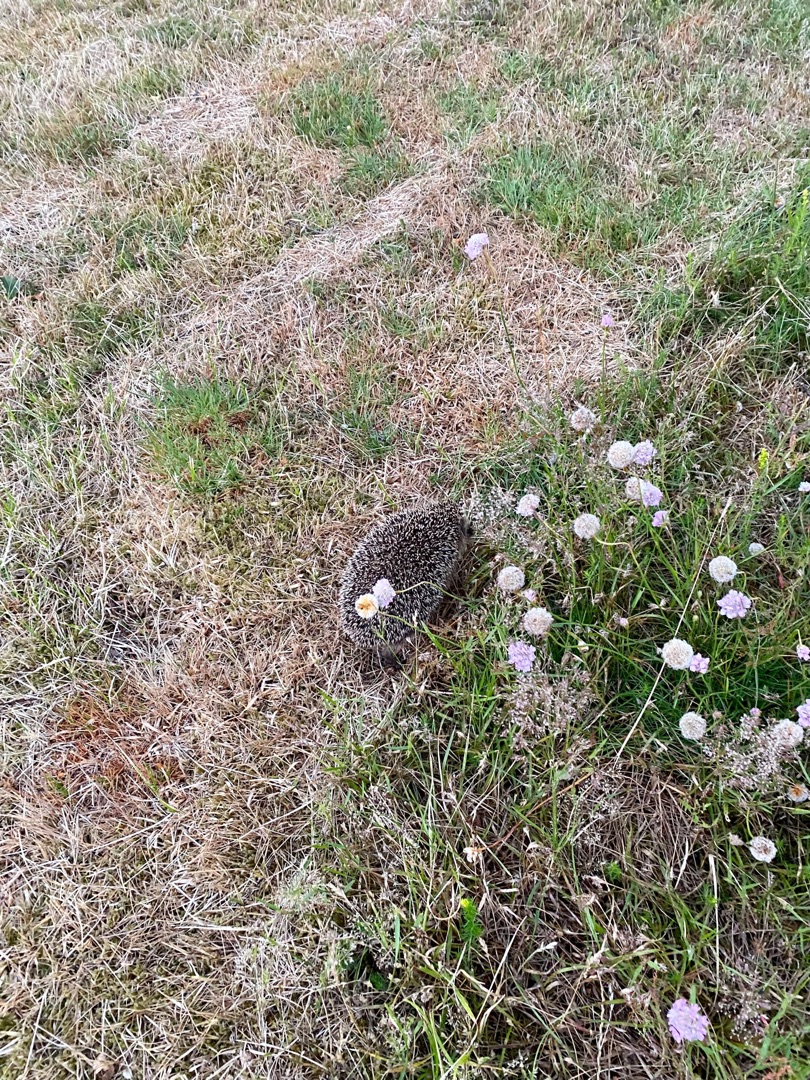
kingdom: Animalia
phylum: Chordata
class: Mammalia
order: Erinaceomorpha
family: Erinaceidae
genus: Erinaceus
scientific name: Erinaceus europaeus
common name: Pindsvin
